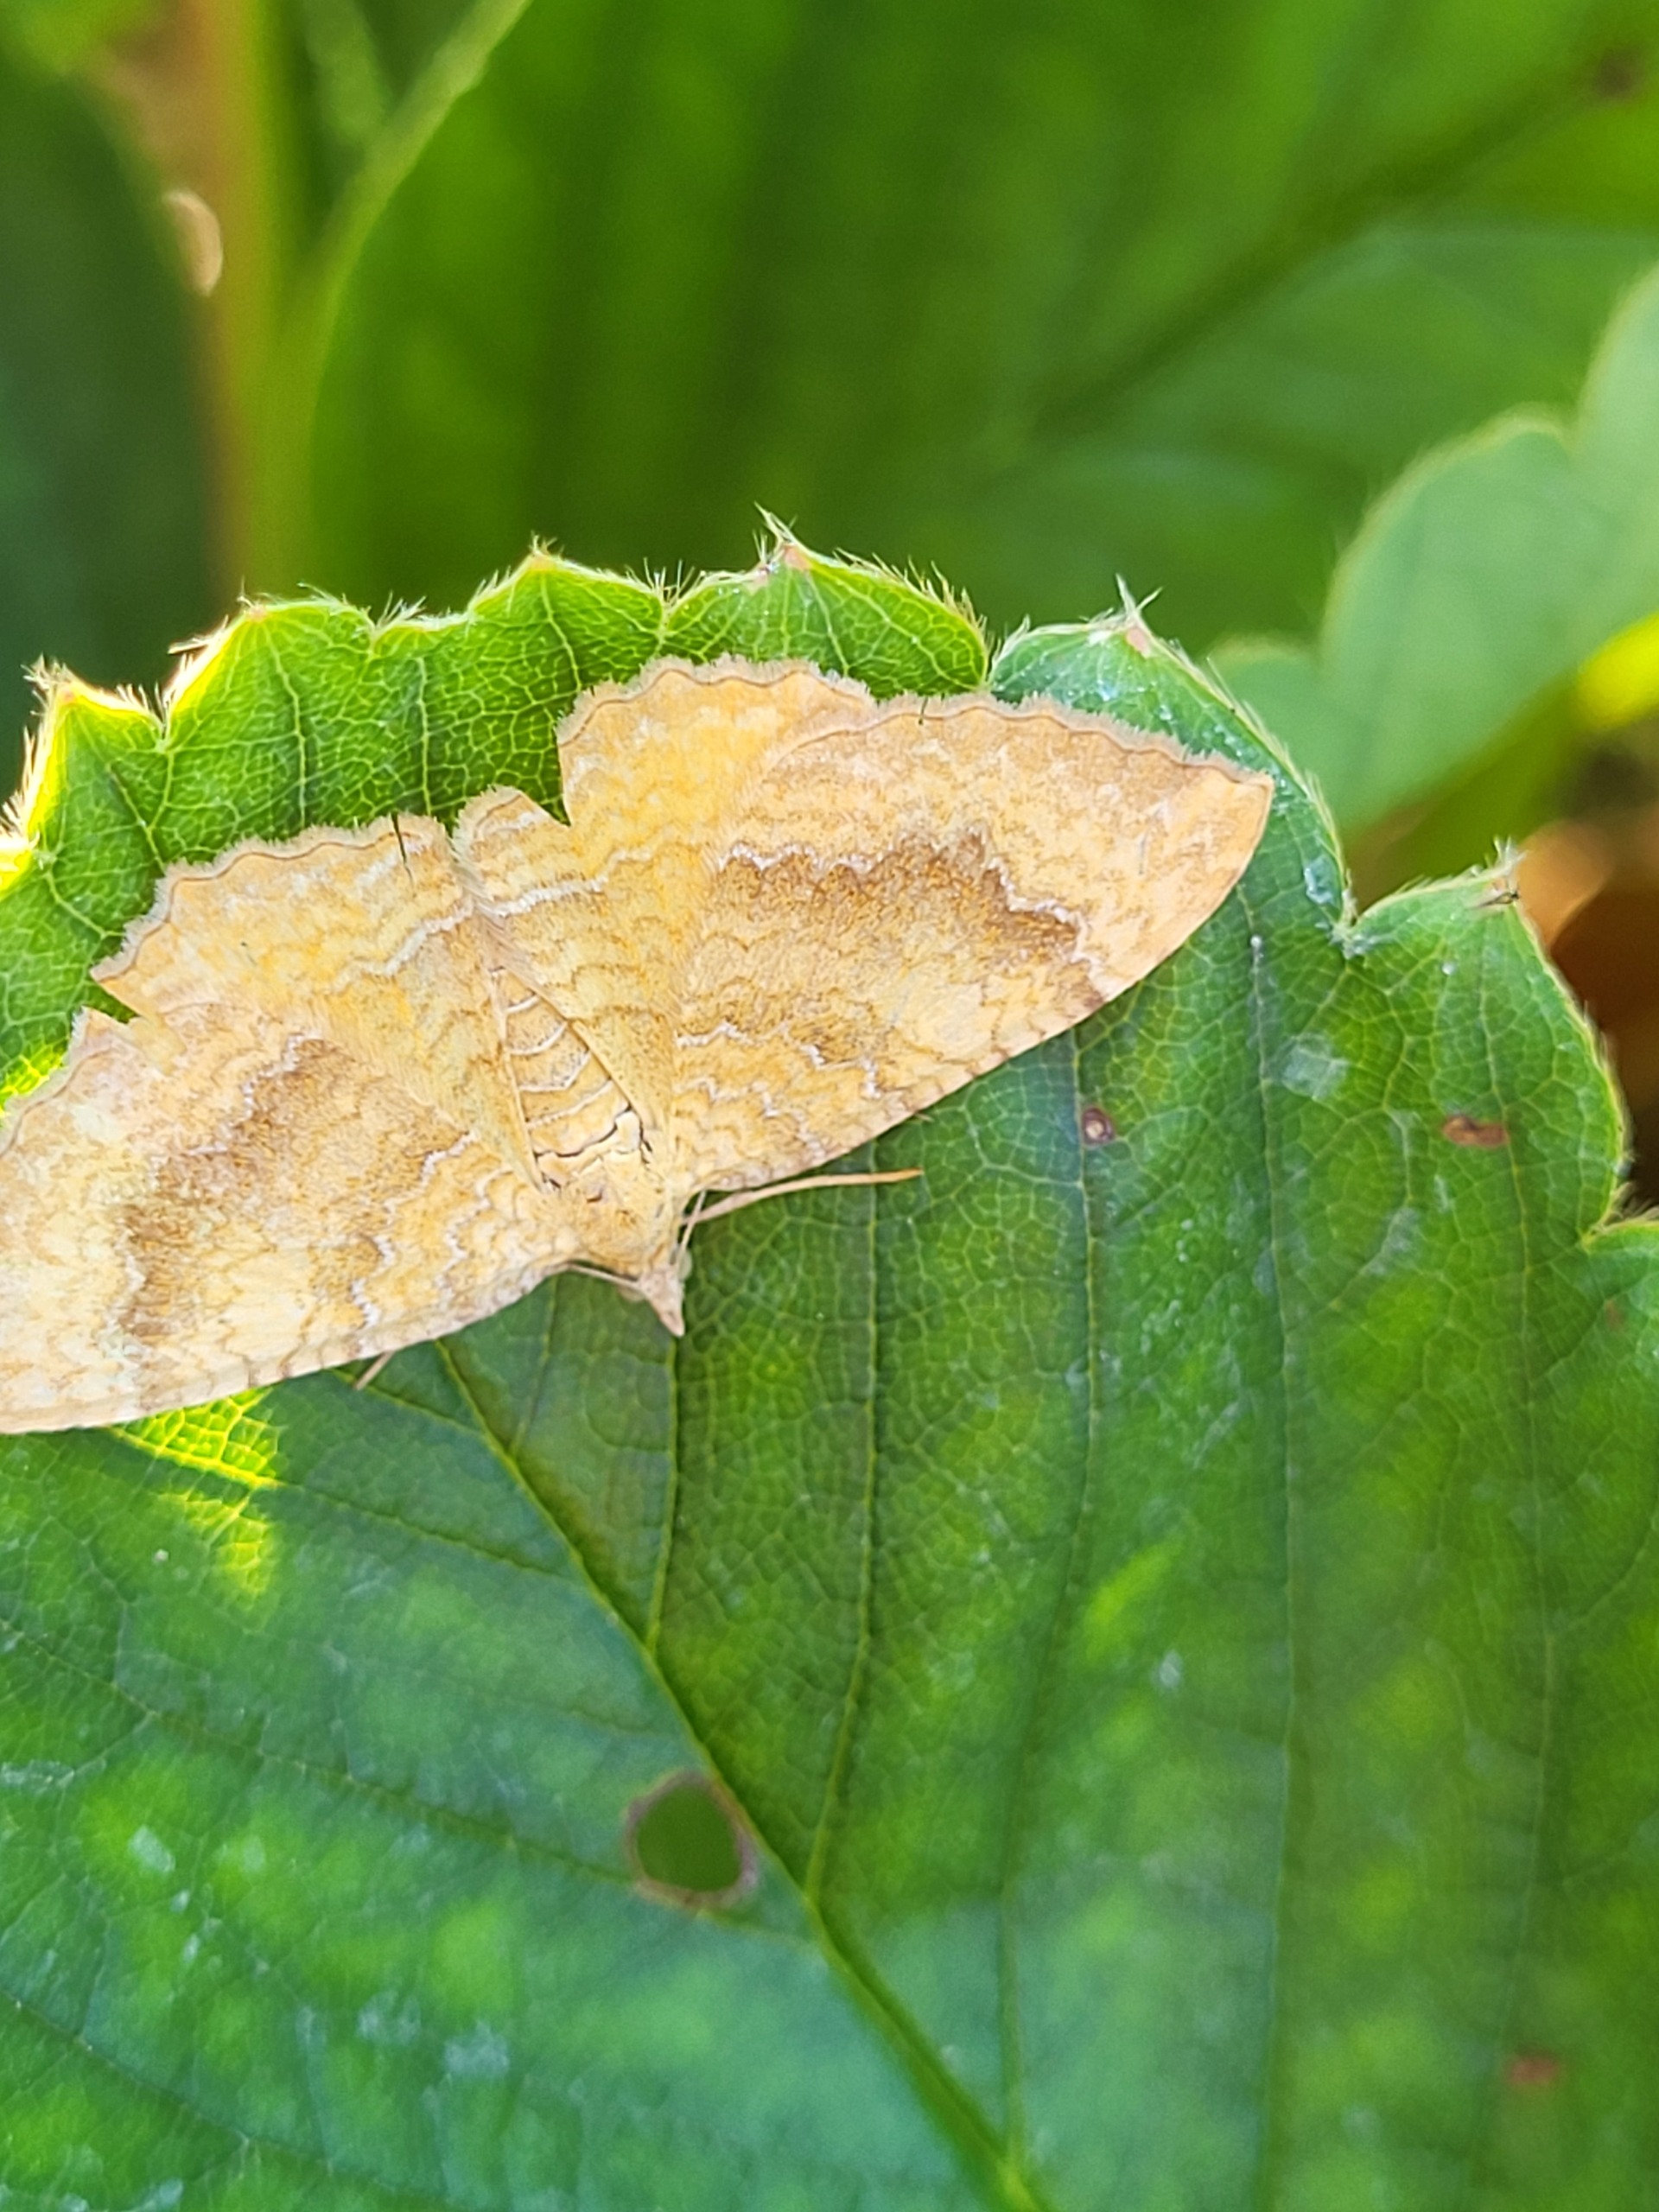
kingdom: Animalia
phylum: Arthropoda
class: Insecta
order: Lepidoptera
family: Geometridae
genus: Camptogramma
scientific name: Camptogramma bilineata
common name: Okkergul bladmåler
